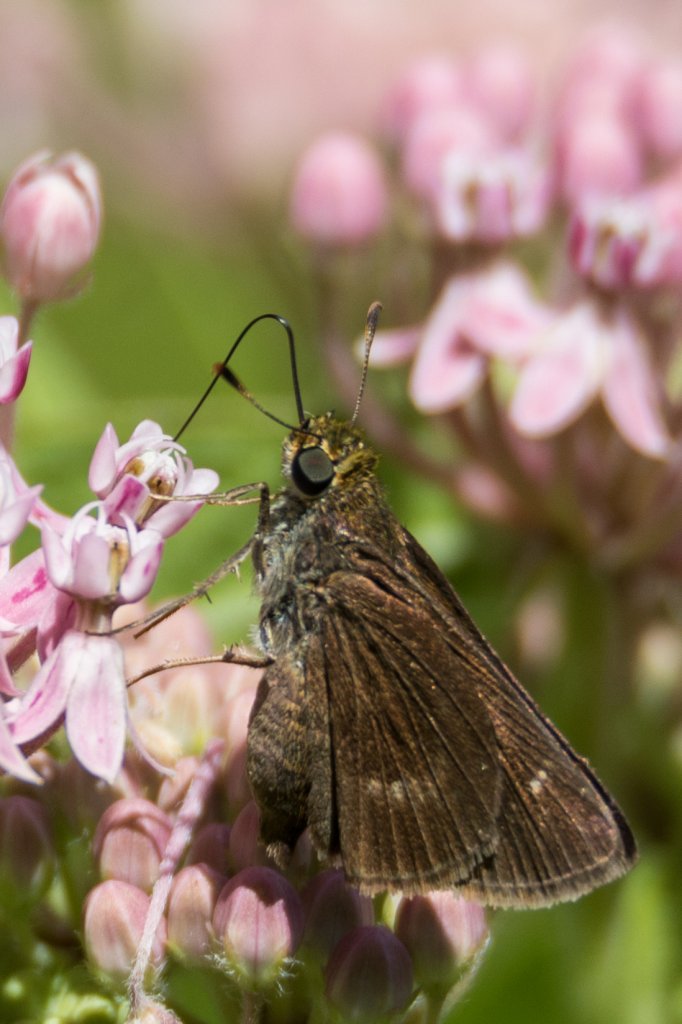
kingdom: Animalia
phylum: Arthropoda
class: Insecta
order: Lepidoptera
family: Hesperiidae
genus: Euphyes
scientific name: Euphyes vestris
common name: Dun Skipper
